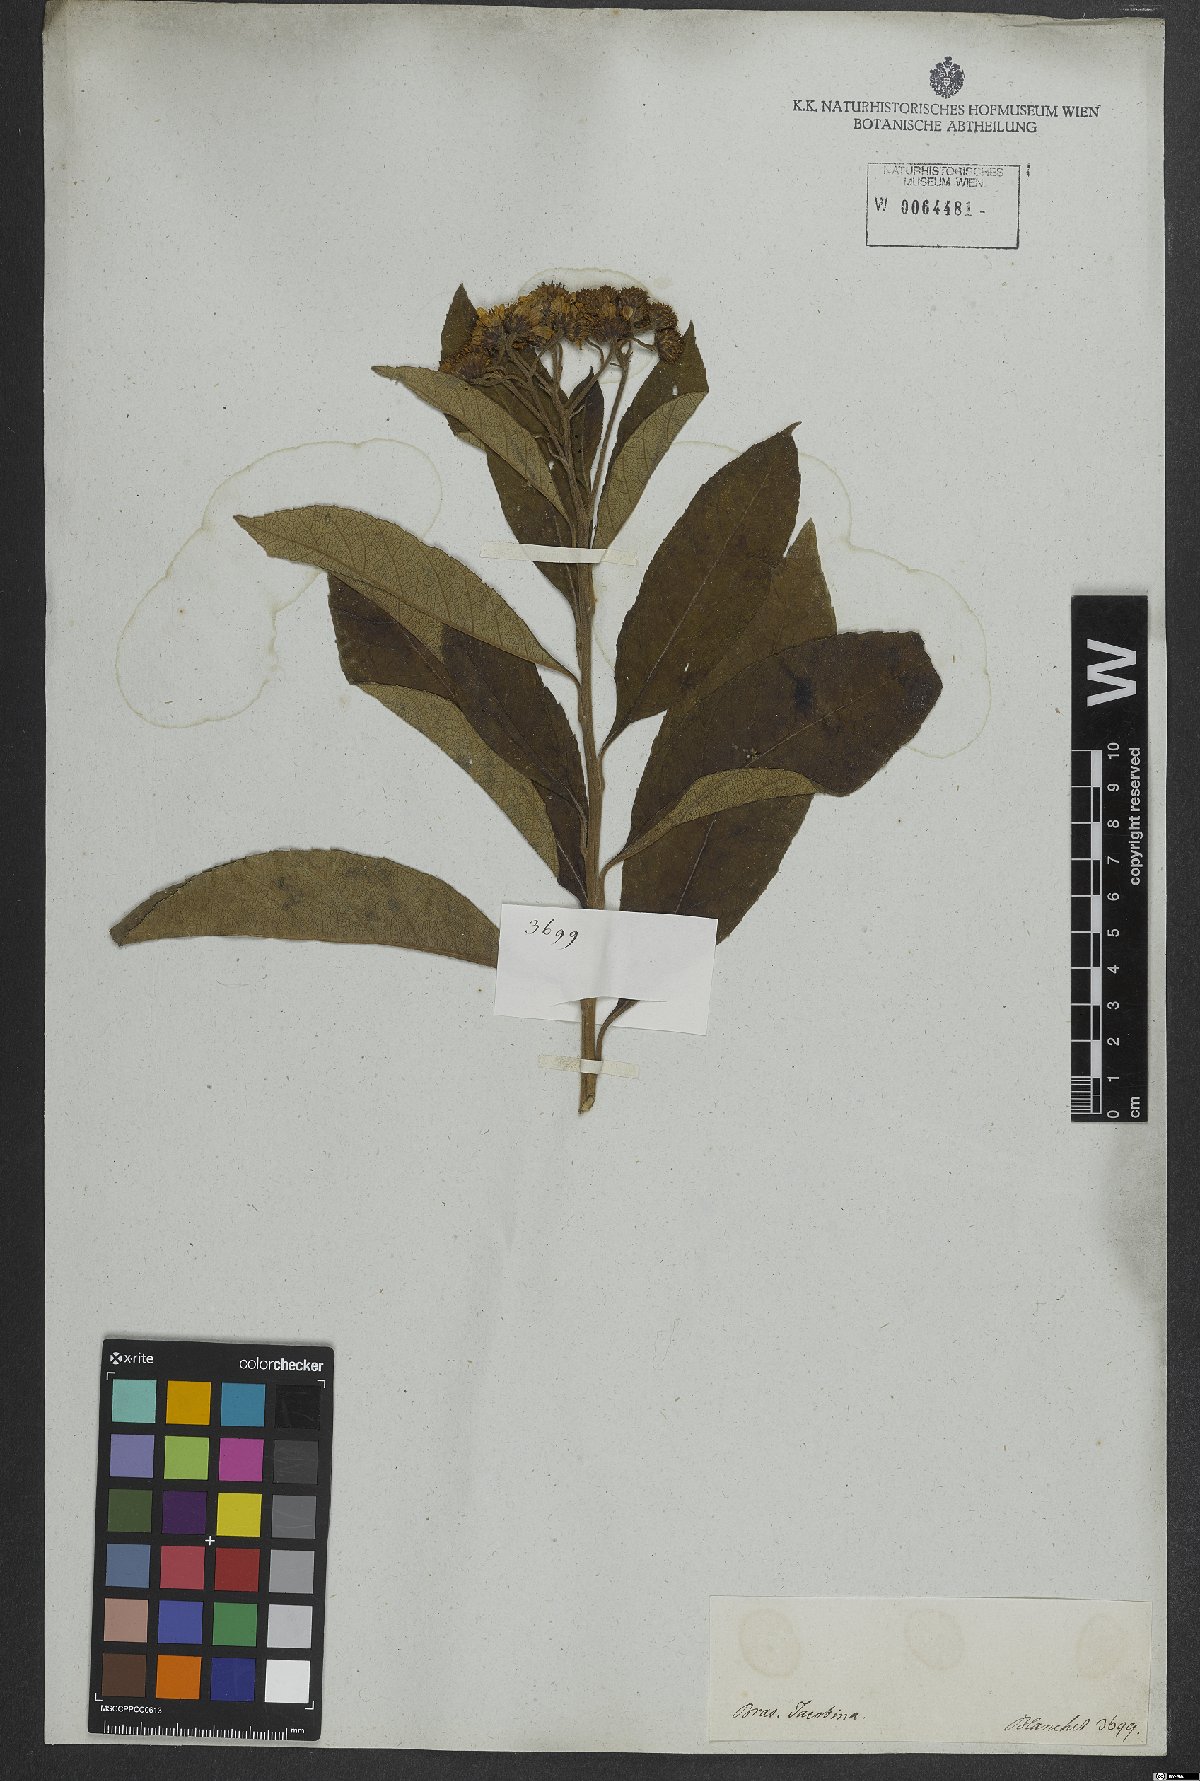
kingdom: Plantae
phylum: Tracheophyta
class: Magnoliopsida
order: Asterales
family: Asteraceae
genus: Lessingianthus
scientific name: Lessingianthus glabratus
